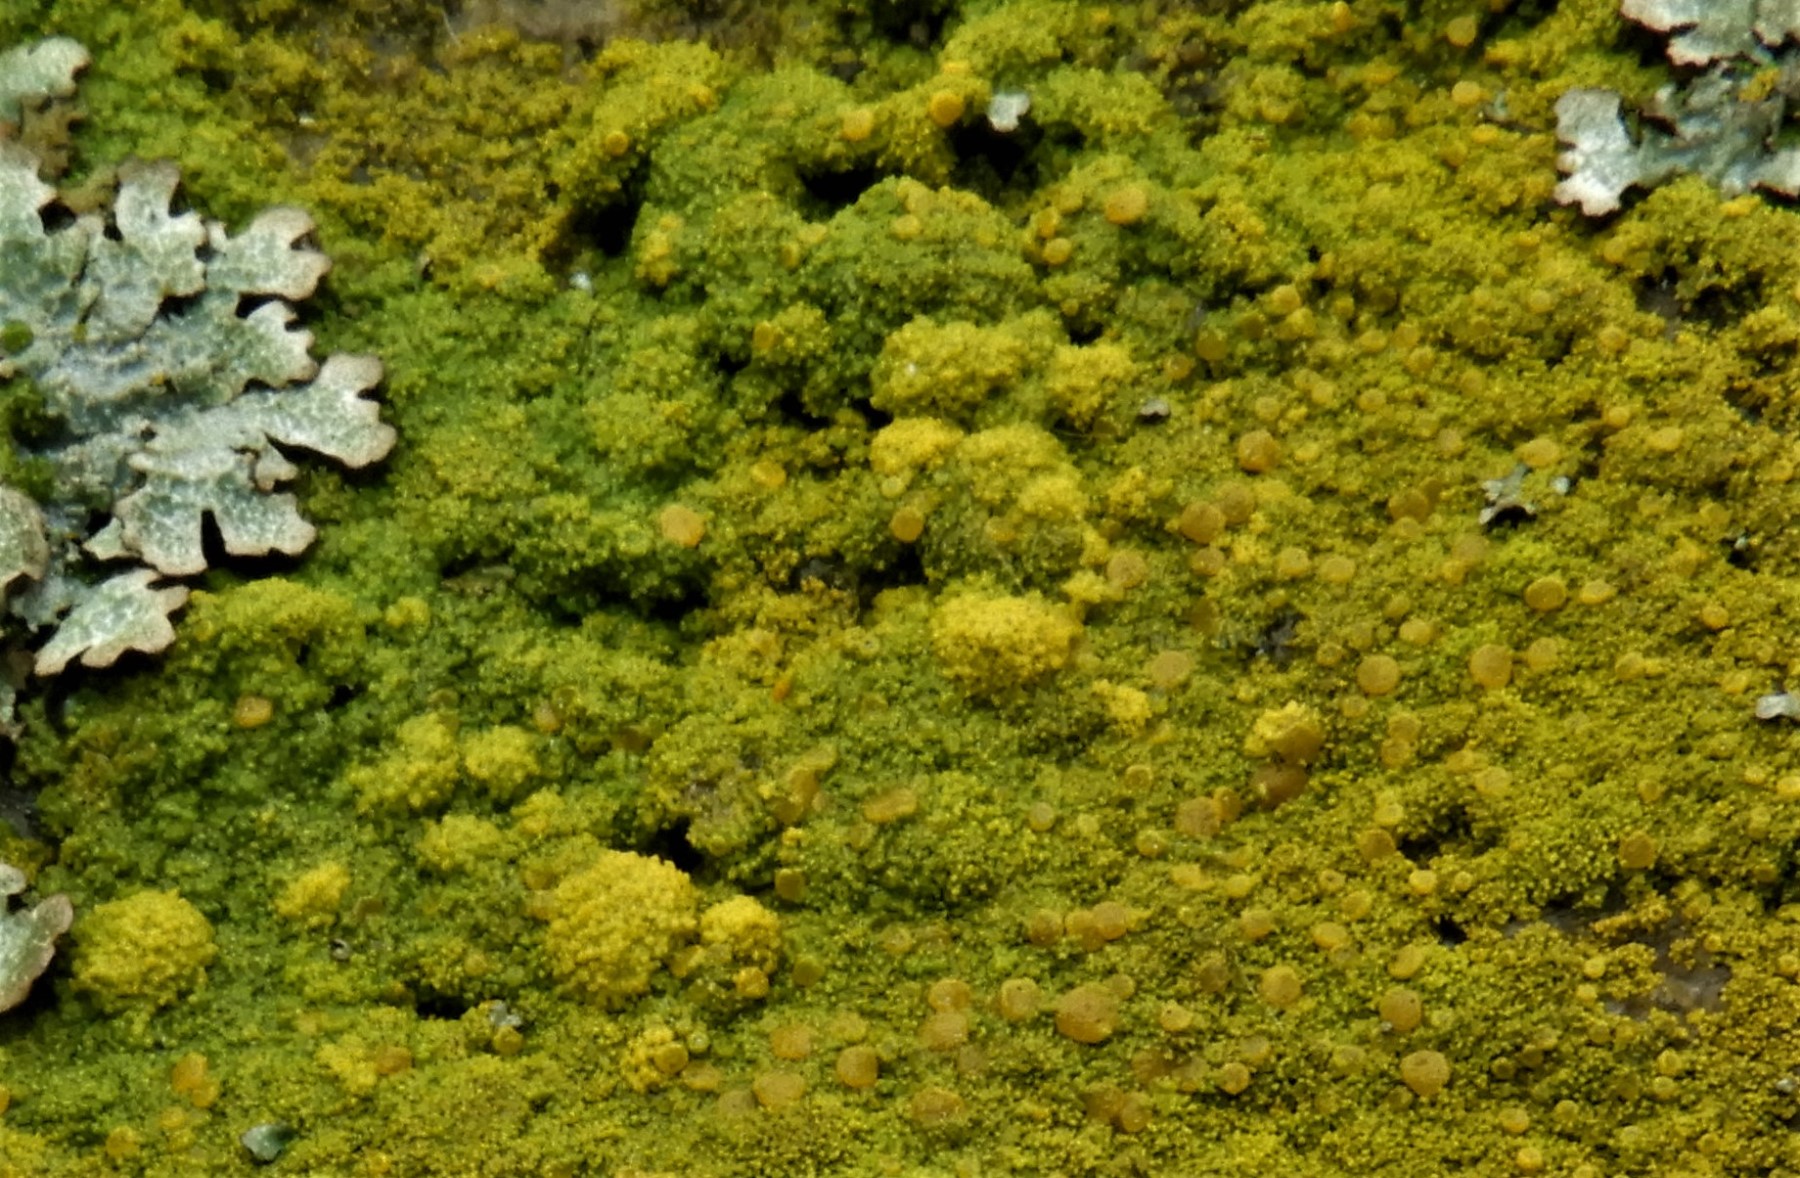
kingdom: Fungi
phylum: Ascomycota
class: Candelariomycetes
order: Candelariales
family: Candelariaceae
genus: Candelariella
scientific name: Candelariella vitellina
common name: almindelig æggeblommelav
